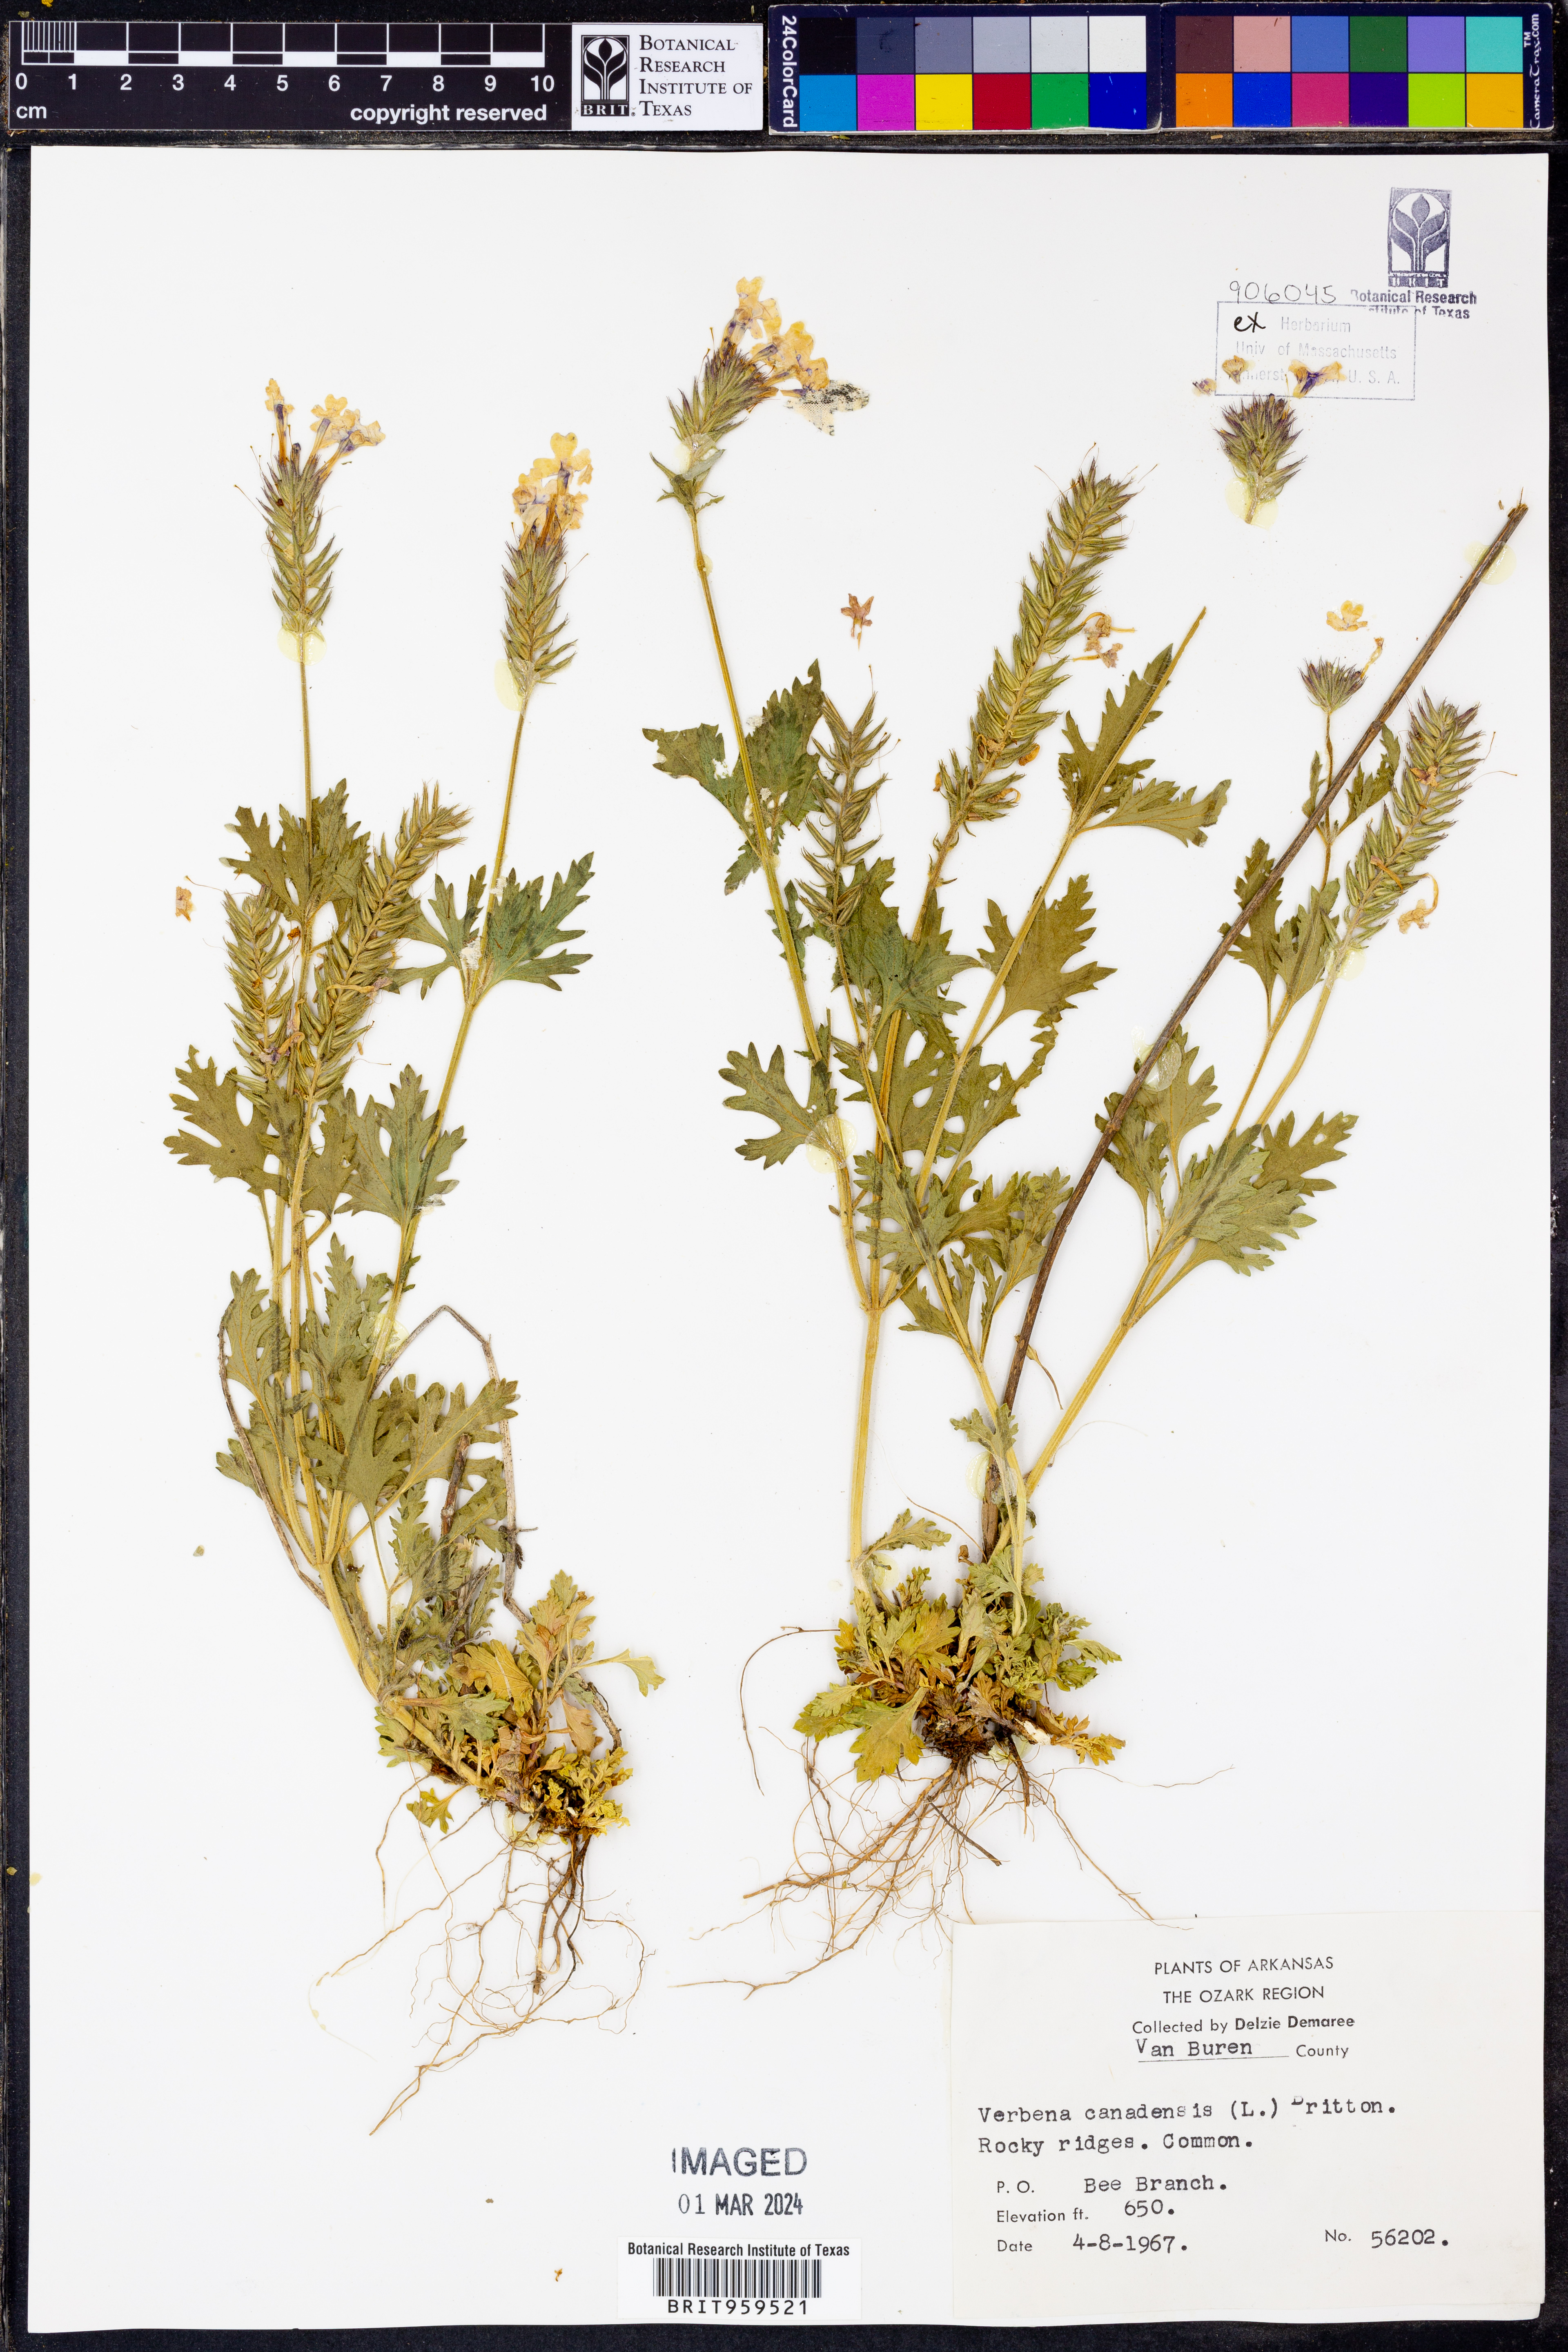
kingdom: Plantae
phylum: Tracheophyta
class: Magnoliopsida
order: Lamiales
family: Verbenaceae
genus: Verbena
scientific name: Verbena canadensis
